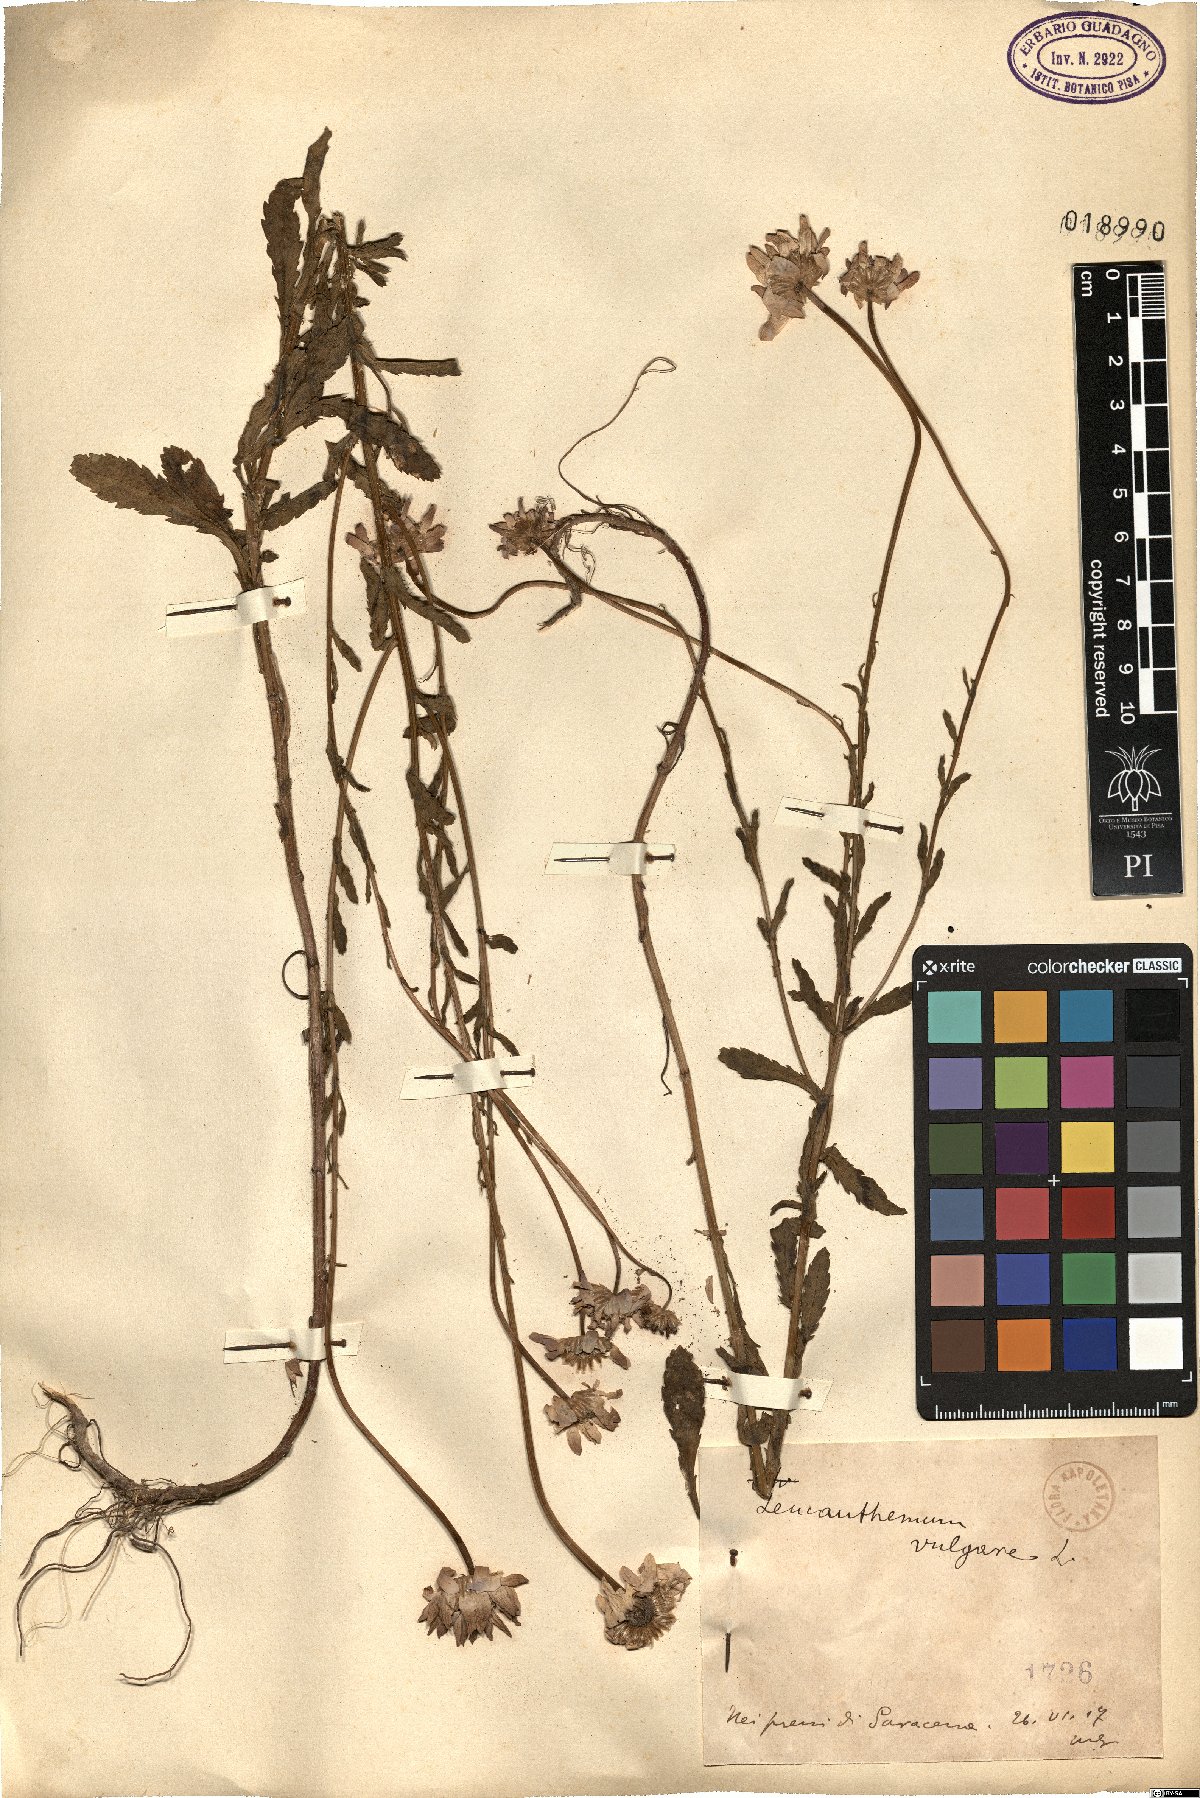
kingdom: Plantae
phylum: Tracheophyta
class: Magnoliopsida
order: Asterales
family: Asteraceae
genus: Leucanthemum
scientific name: Leucanthemum vulgare
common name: Oxeye daisy
